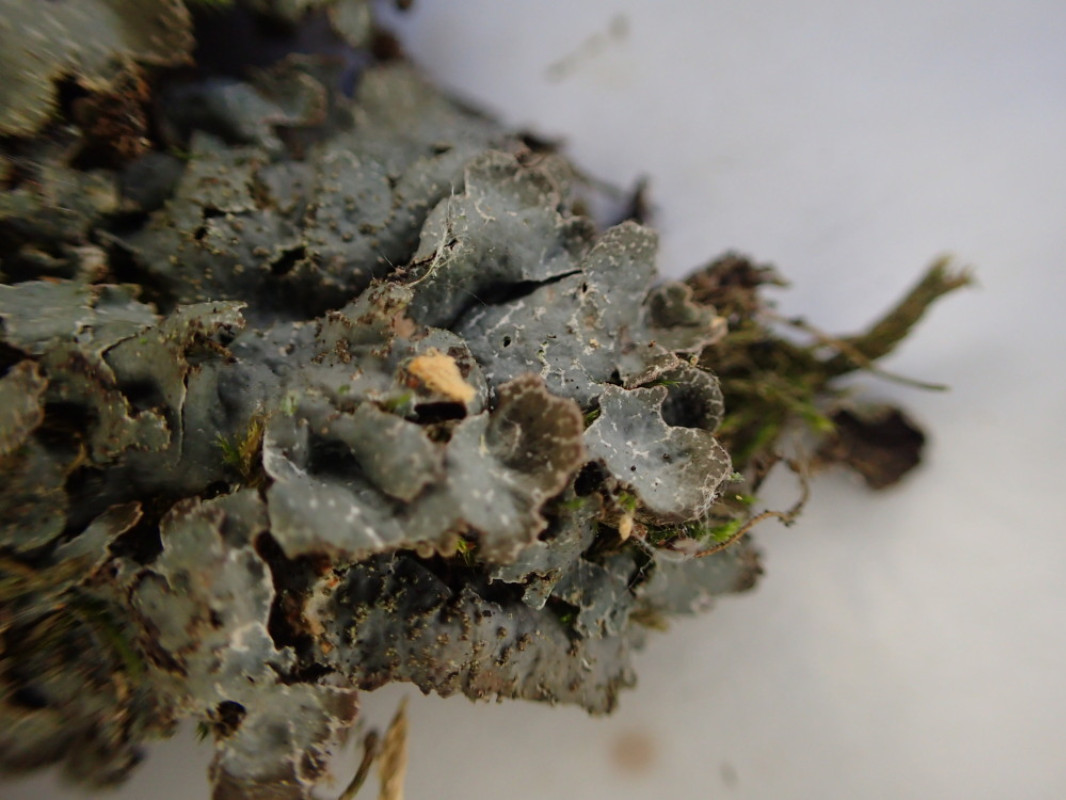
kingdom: Fungi
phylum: Ascomycota
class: Lecanoromycetes
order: Lecanorales
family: Parmeliaceae
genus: Parmelia
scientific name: Parmelia saxatilis
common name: farve-skållav
